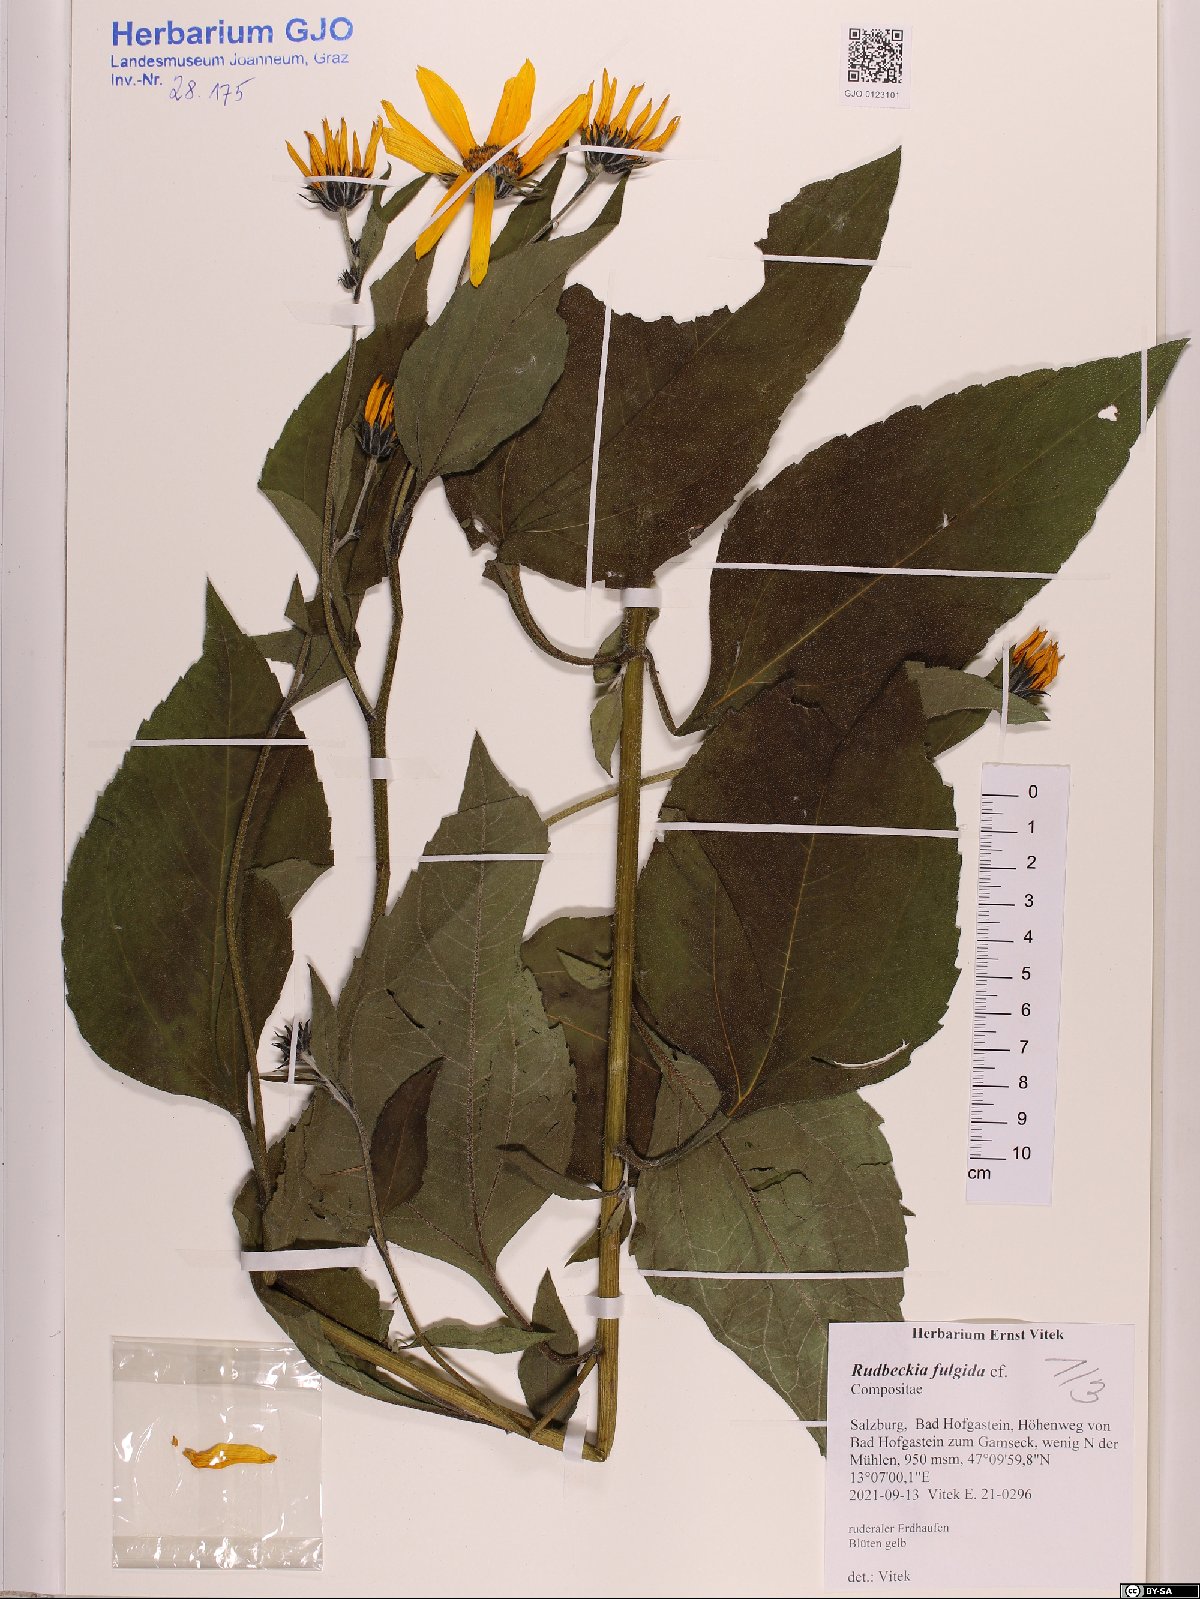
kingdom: Plantae
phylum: Tracheophyta
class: Magnoliopsida
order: Asterales
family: Asteraceae
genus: Rudbeckia
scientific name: Rudbeckia fulgida
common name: Perennial coneflower
